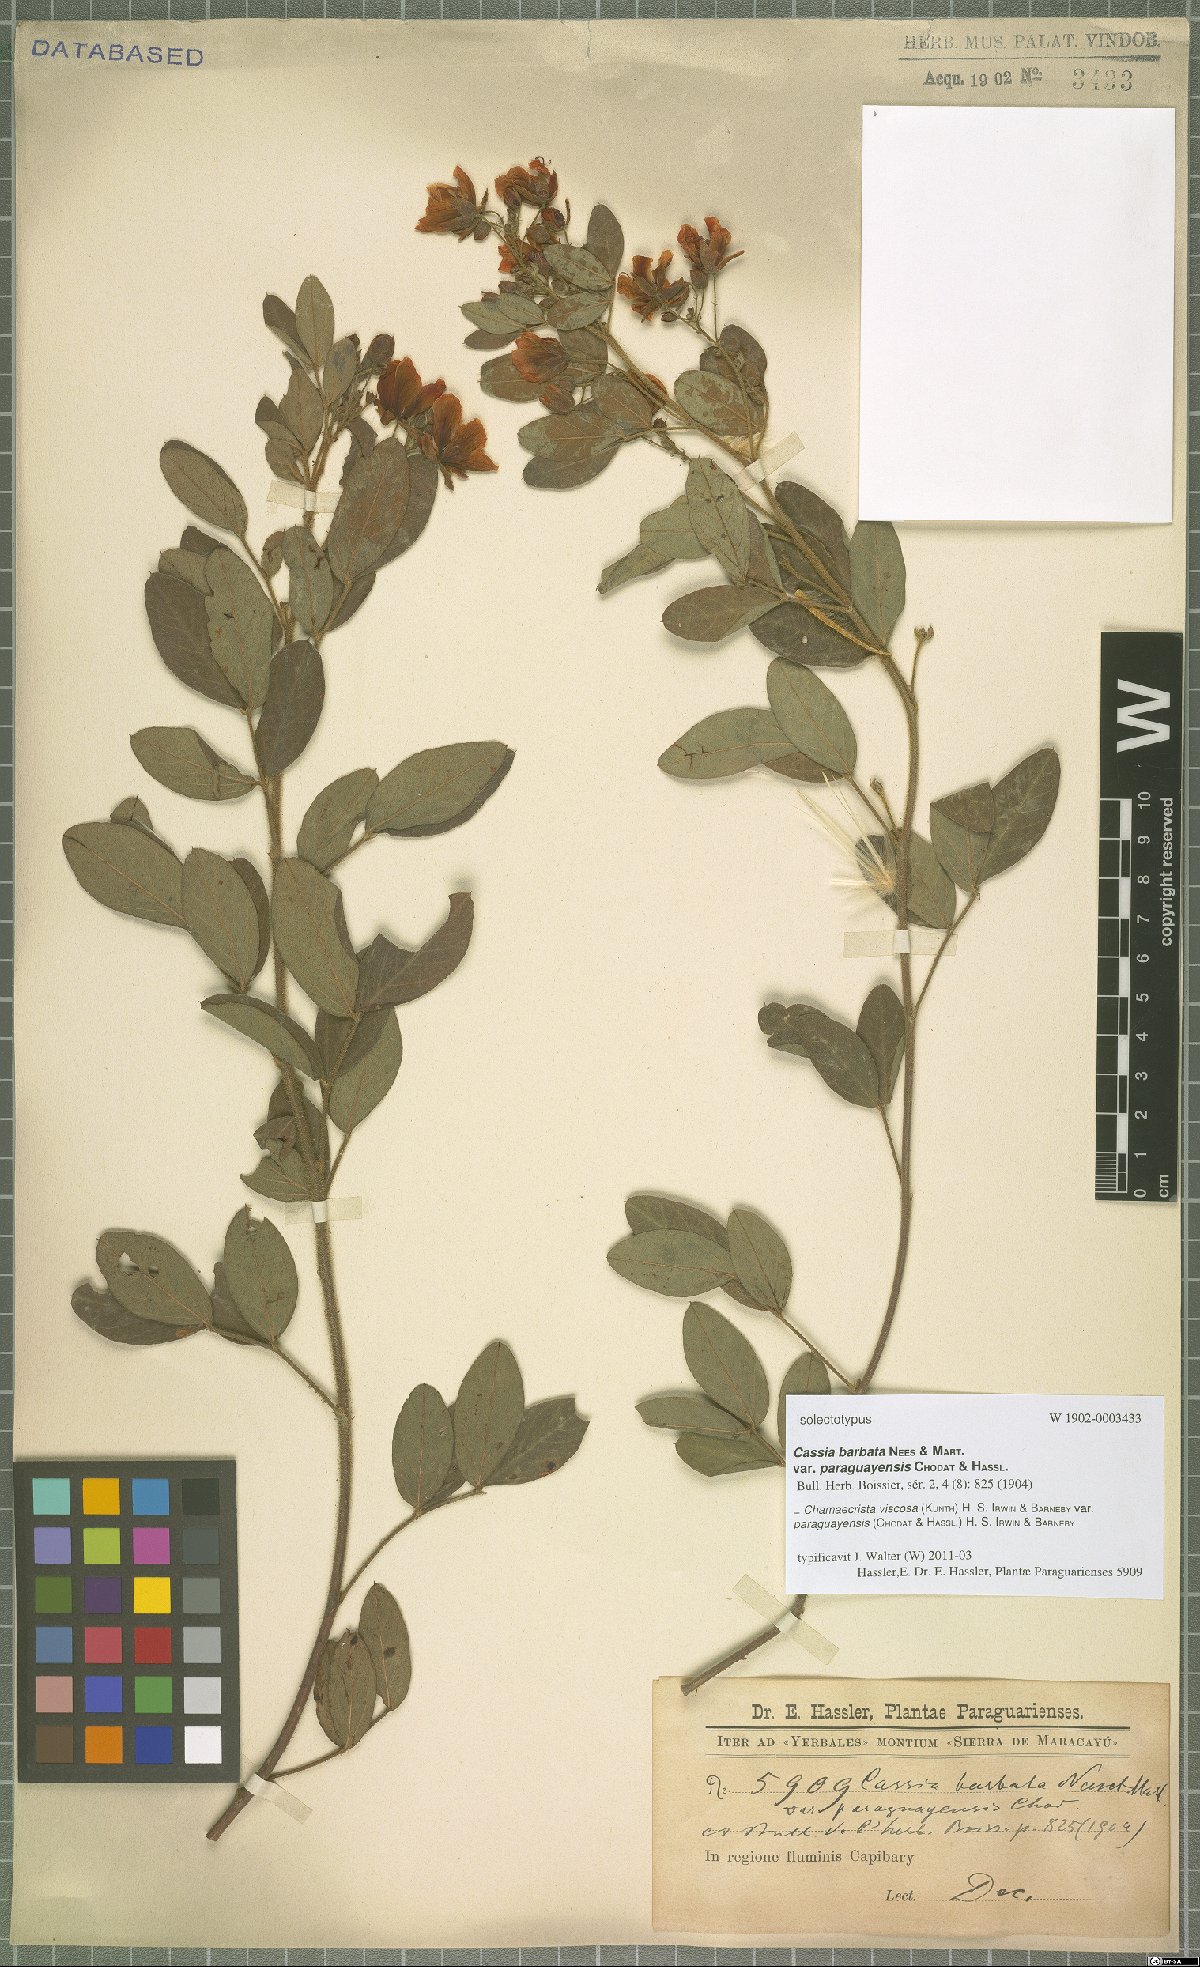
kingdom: Plantae
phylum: Tracheophyta
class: Magnoliopsida
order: Fabales
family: Fabaceae
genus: Chamaecrista
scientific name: Chamaecrista viscosa
